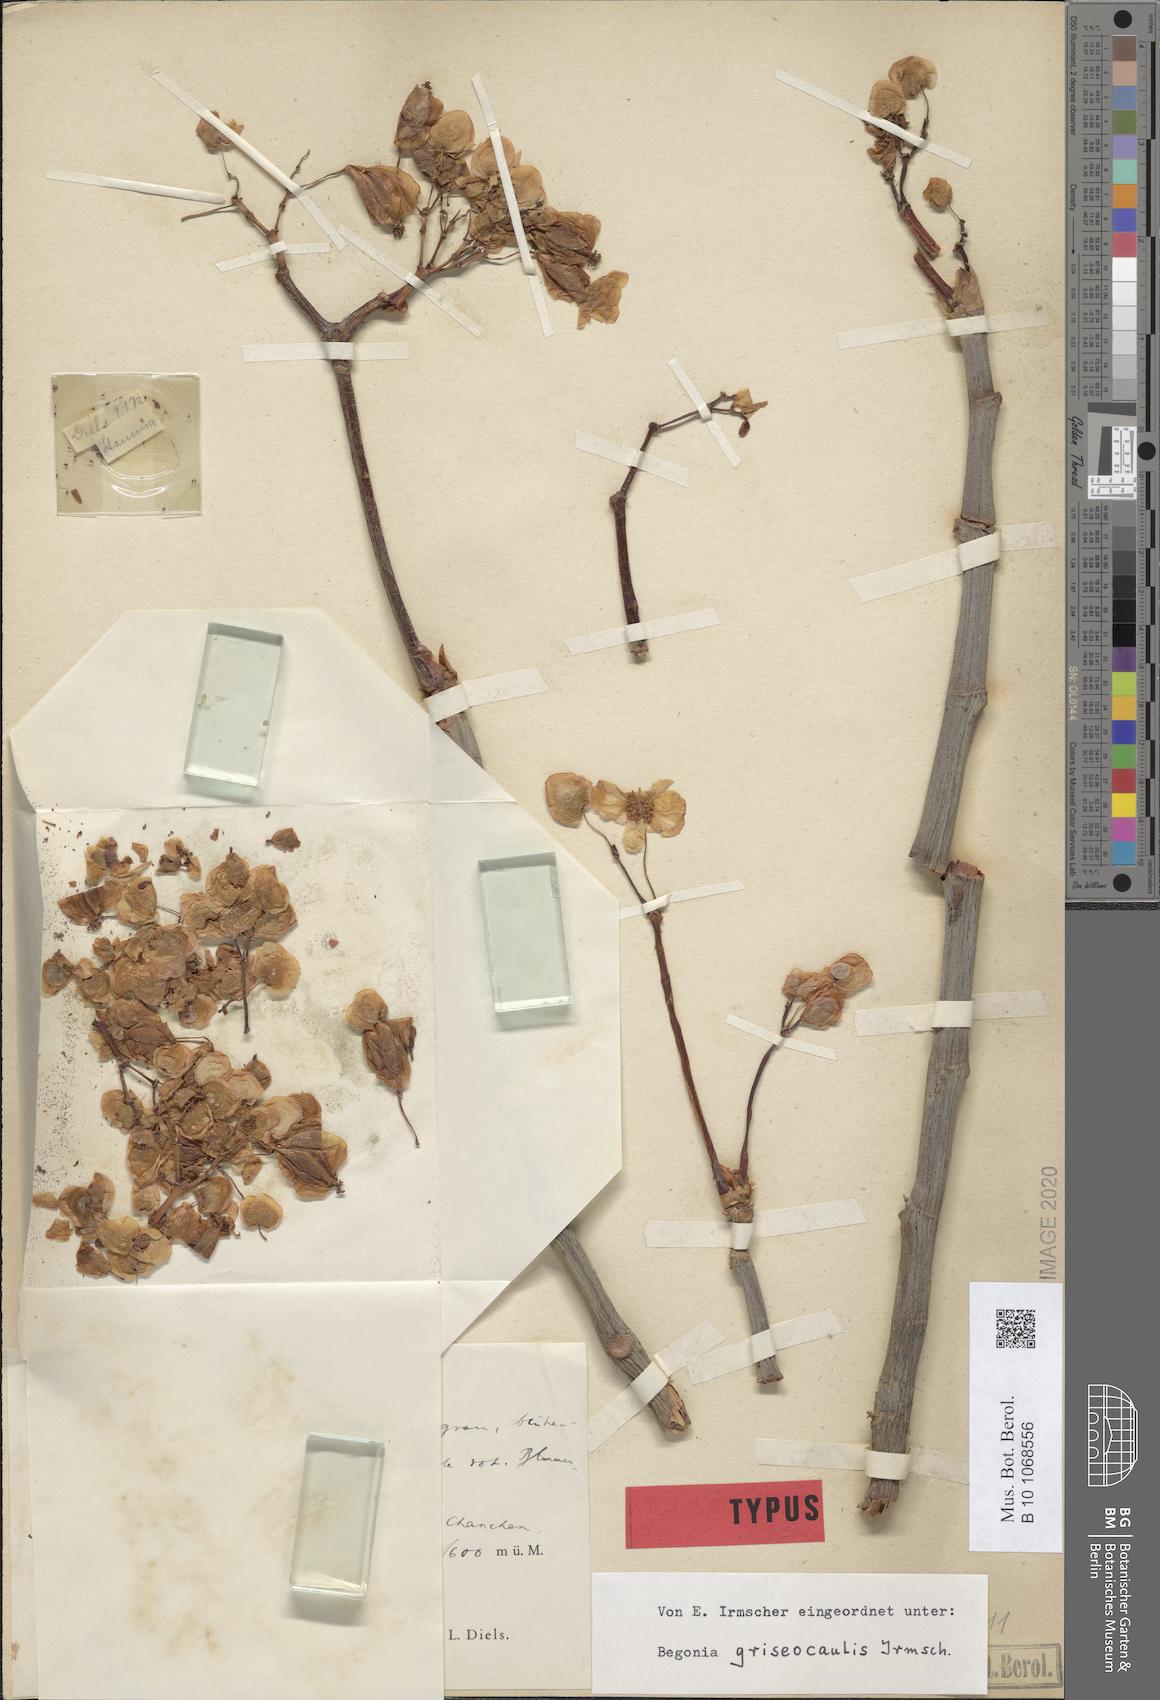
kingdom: Plantae
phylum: Tracheophyta
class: Magnoliopsida
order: Cucurbitales
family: Begoniaceae
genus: Begonia
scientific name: Begonia acerifolia
